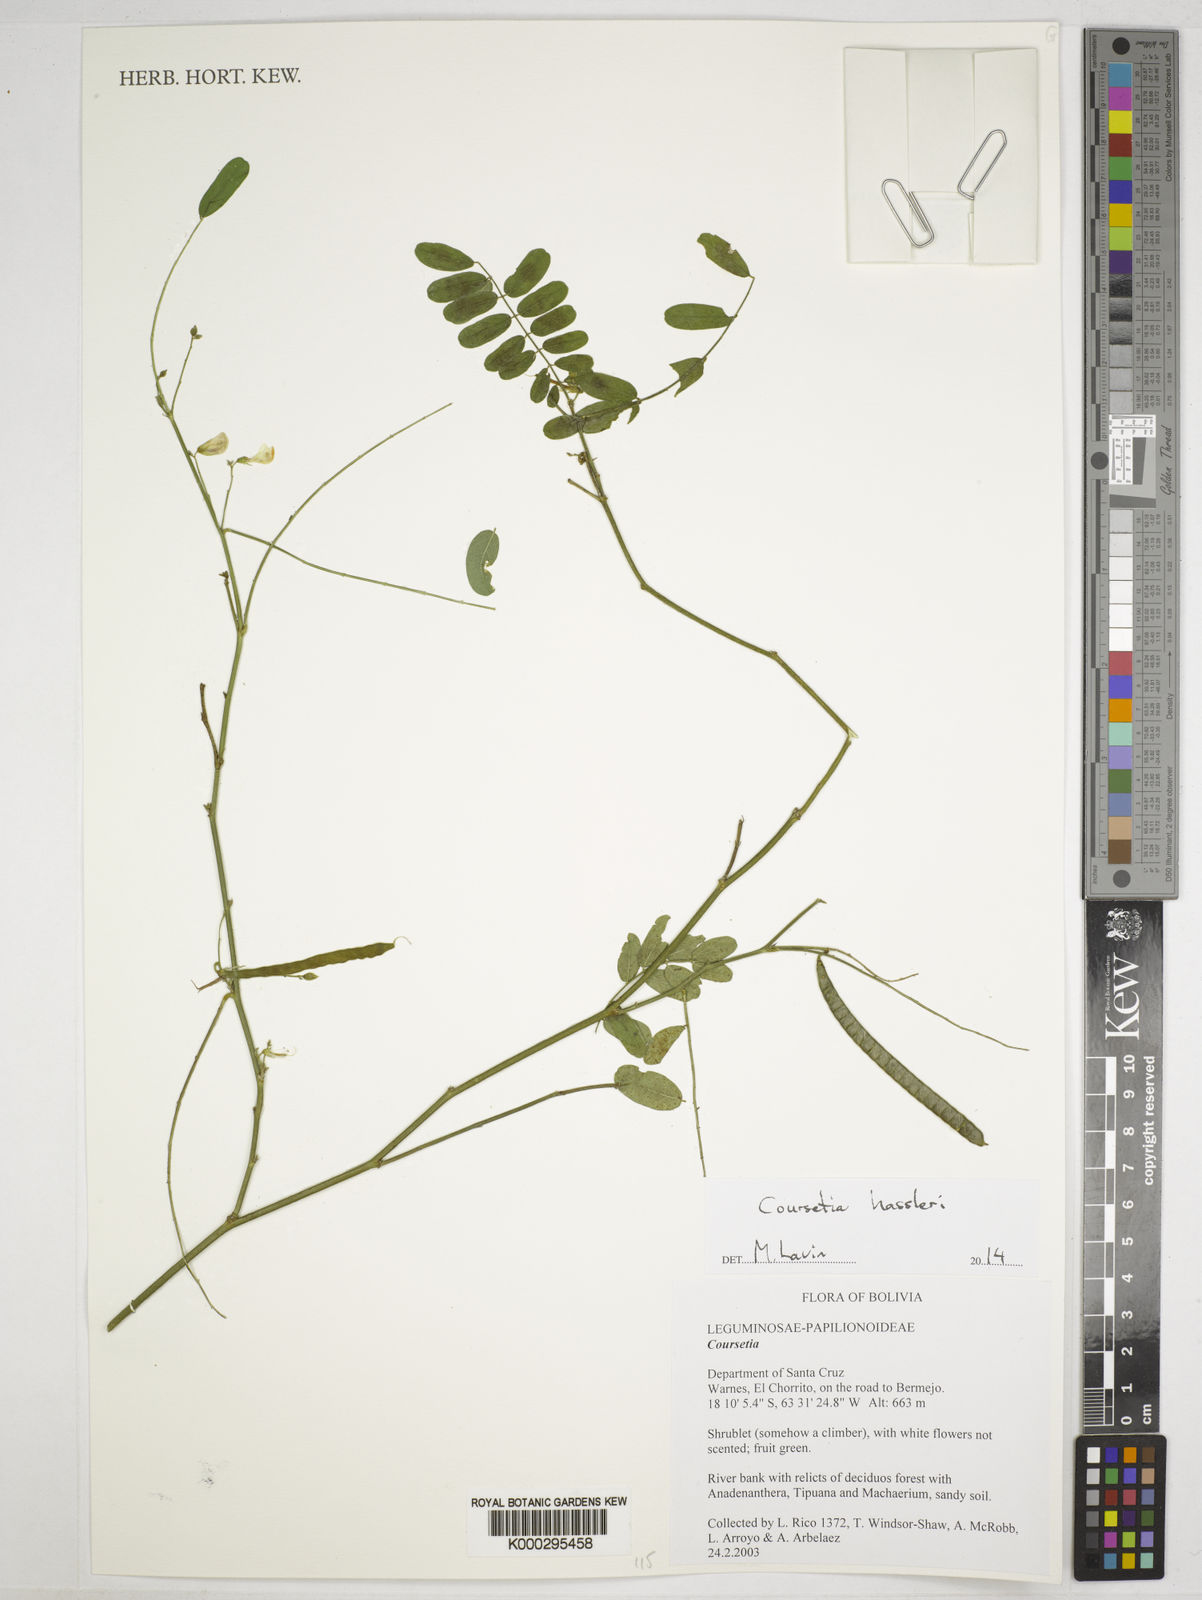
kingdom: Plantae
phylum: Tracheophyta
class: Magnoliopsida
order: Fabales
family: Fabaceae
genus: Coursetia
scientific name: Coursetia
